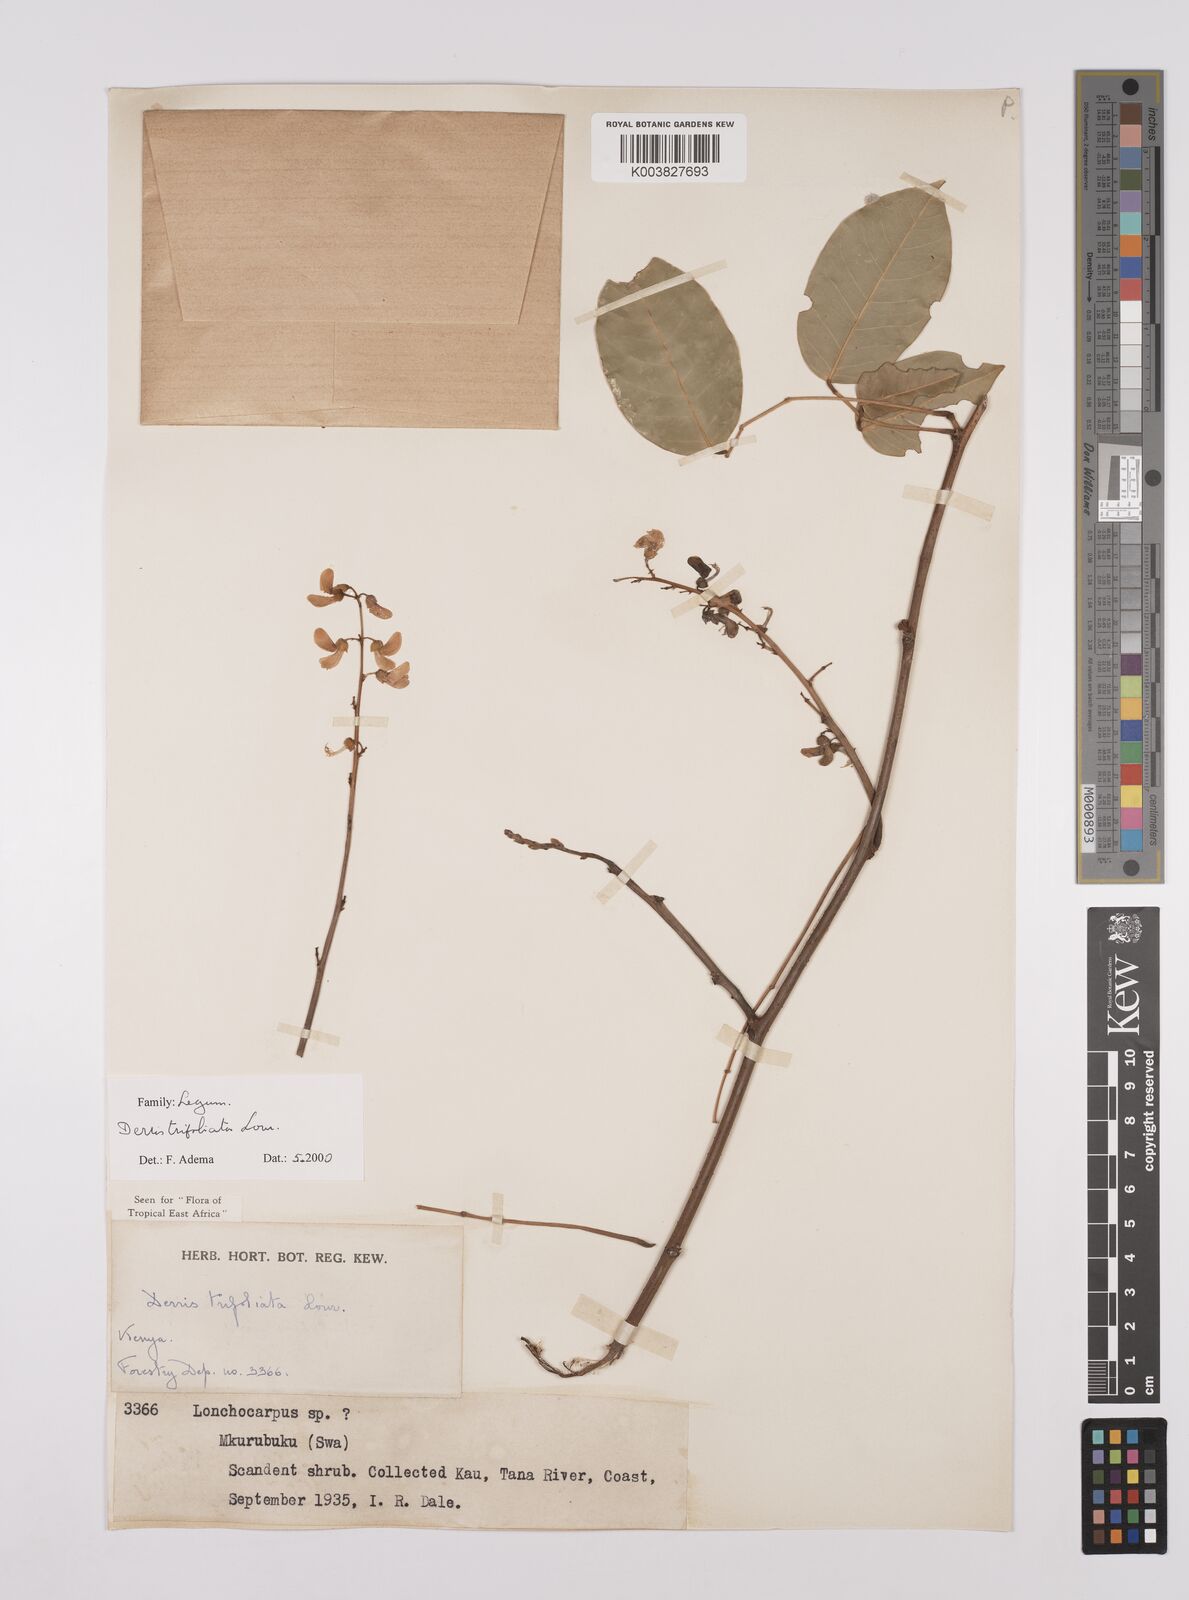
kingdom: Plantae
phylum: Tracheophyta
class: Magnoliopsida
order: Fabales
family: Fabaceae
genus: Derris
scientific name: Derris trifoliata
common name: Three-leaf derris
